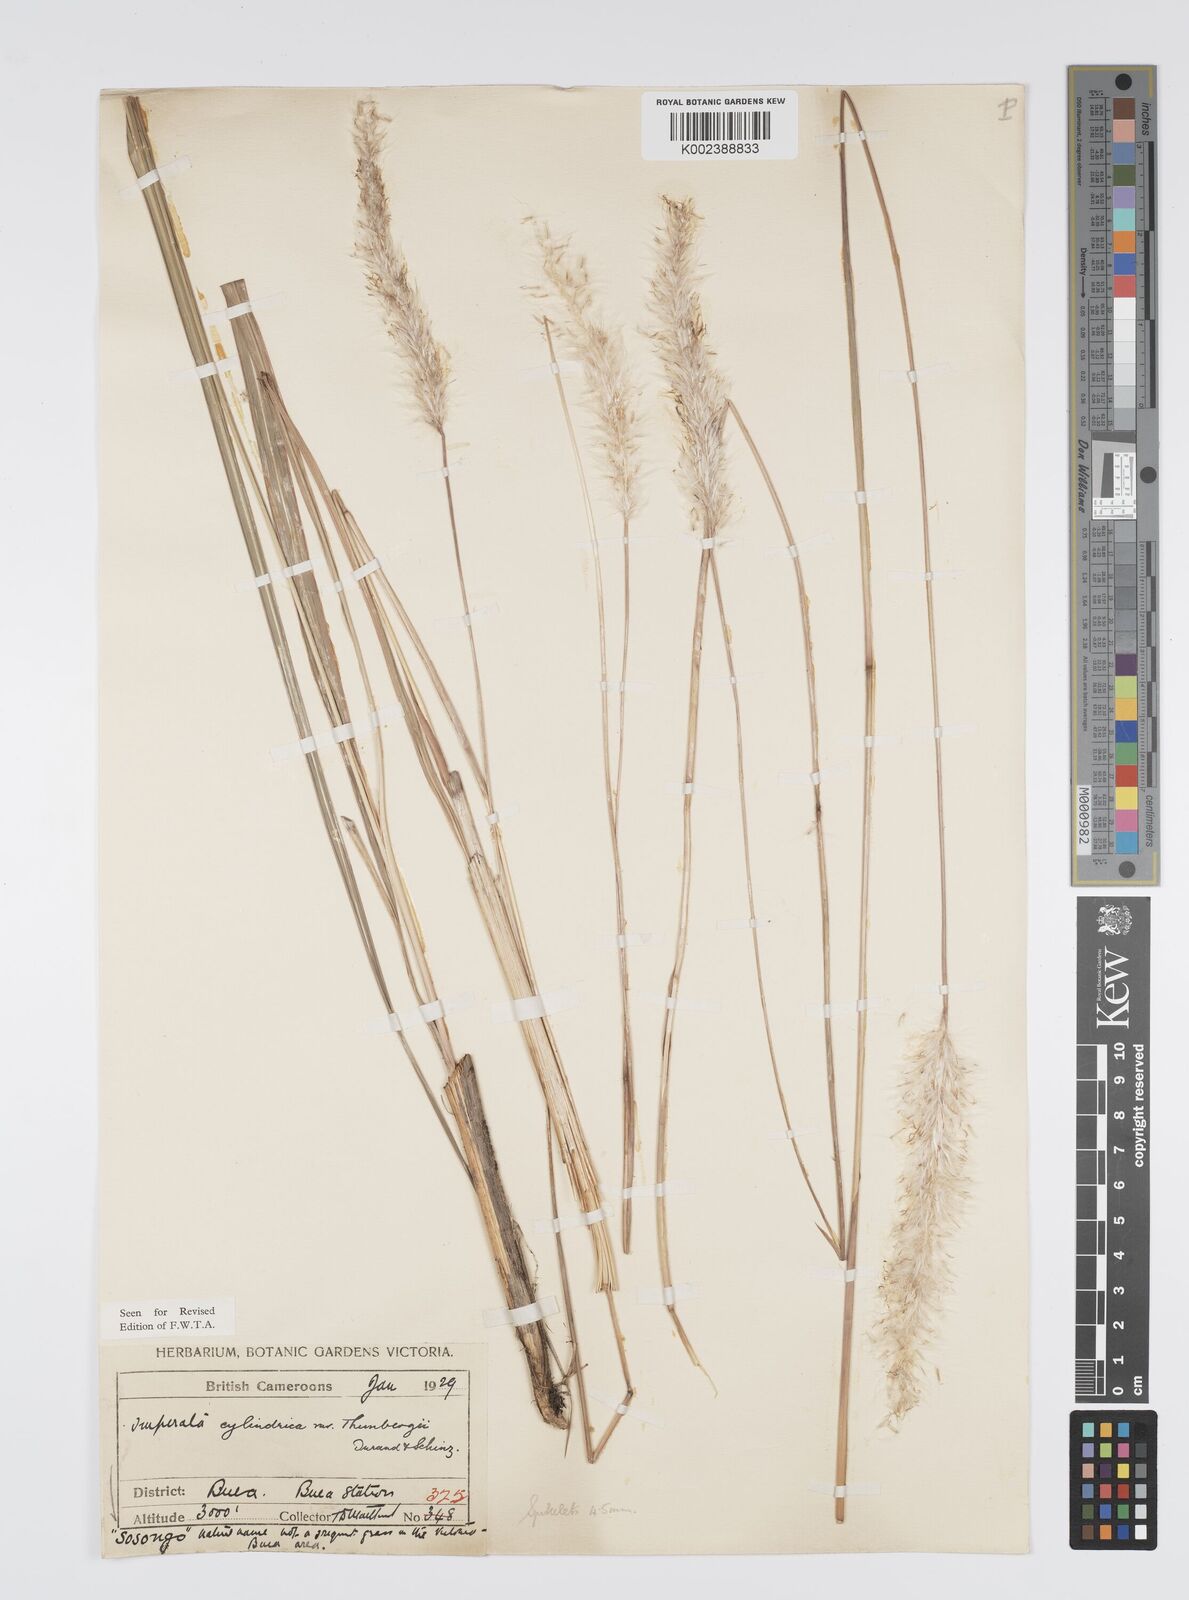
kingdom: Plantae
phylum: Tracheophyta
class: Liliopsida
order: Poales
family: Poaceae
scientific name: Poaceae
